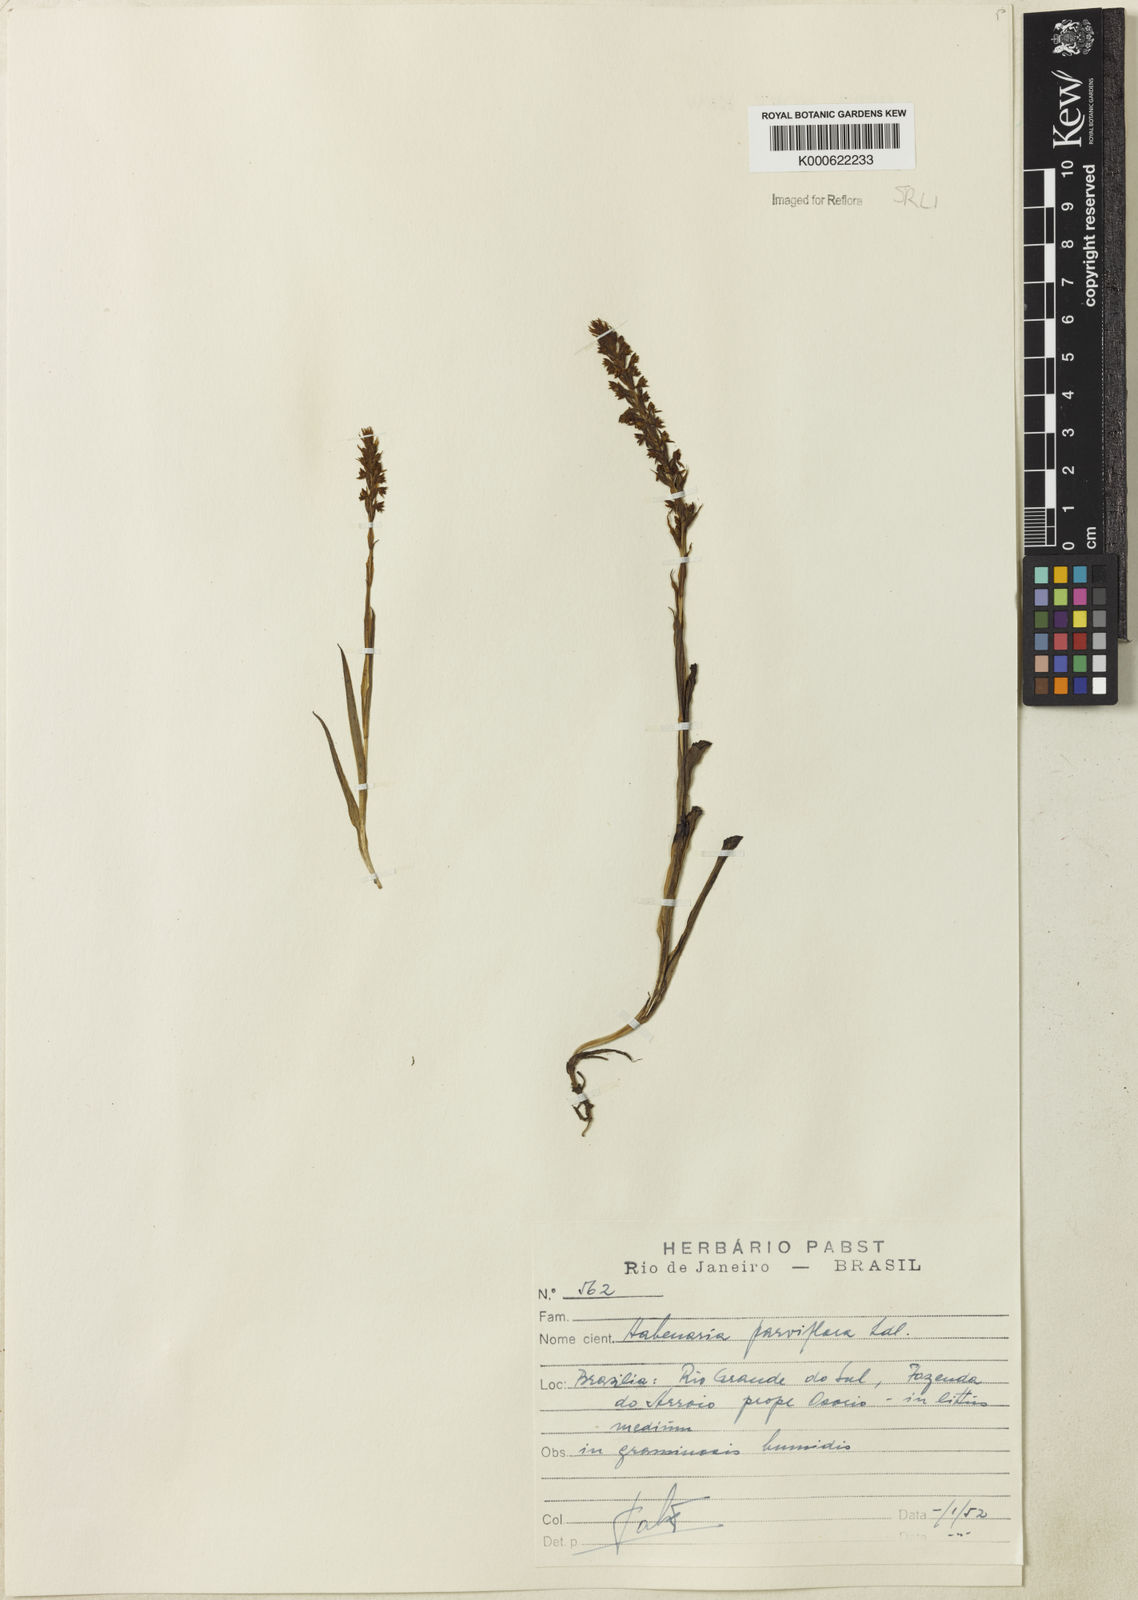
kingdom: Plantae
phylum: Tracheophyta
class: Liliopsida
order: Asparagales
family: Orchidaceae
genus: Habenaria
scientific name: Habenaria parviflora
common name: Small flowered habenaria
